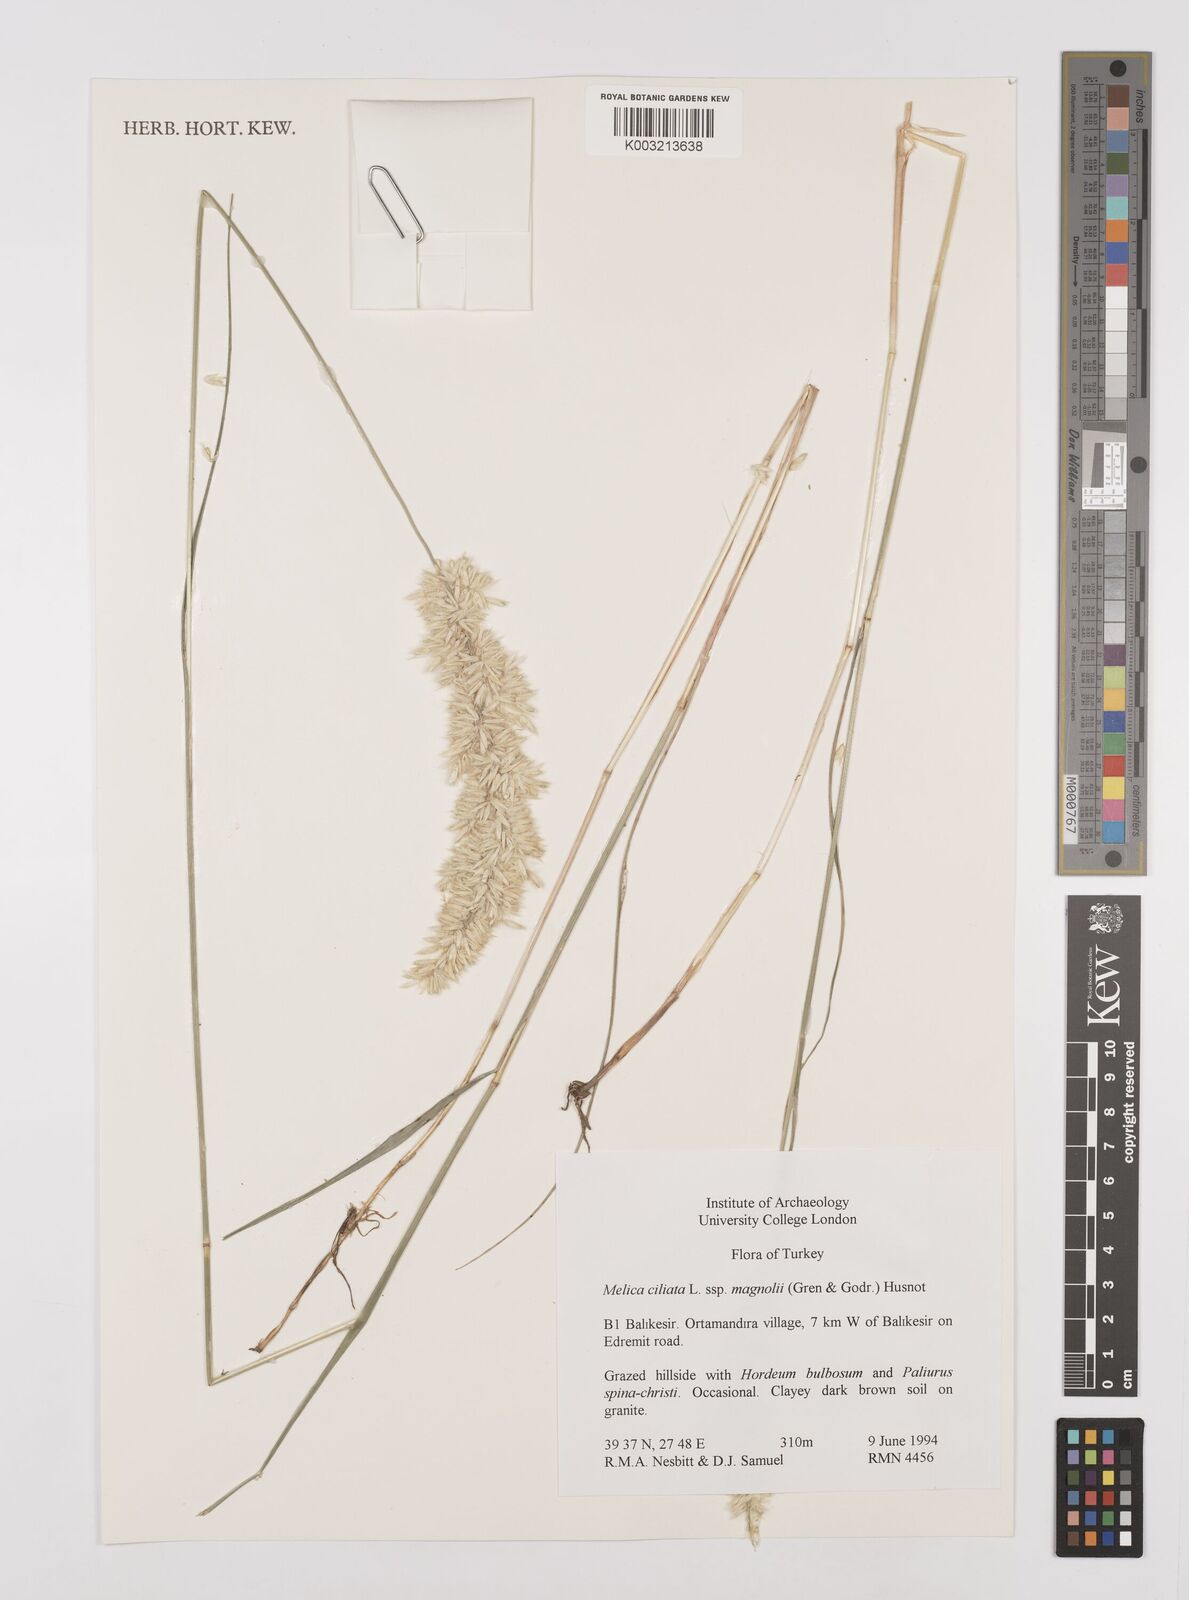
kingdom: Plantae
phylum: Tracheophyta
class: Liliopsida
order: Poales
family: Poaceae
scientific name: Poaceae
